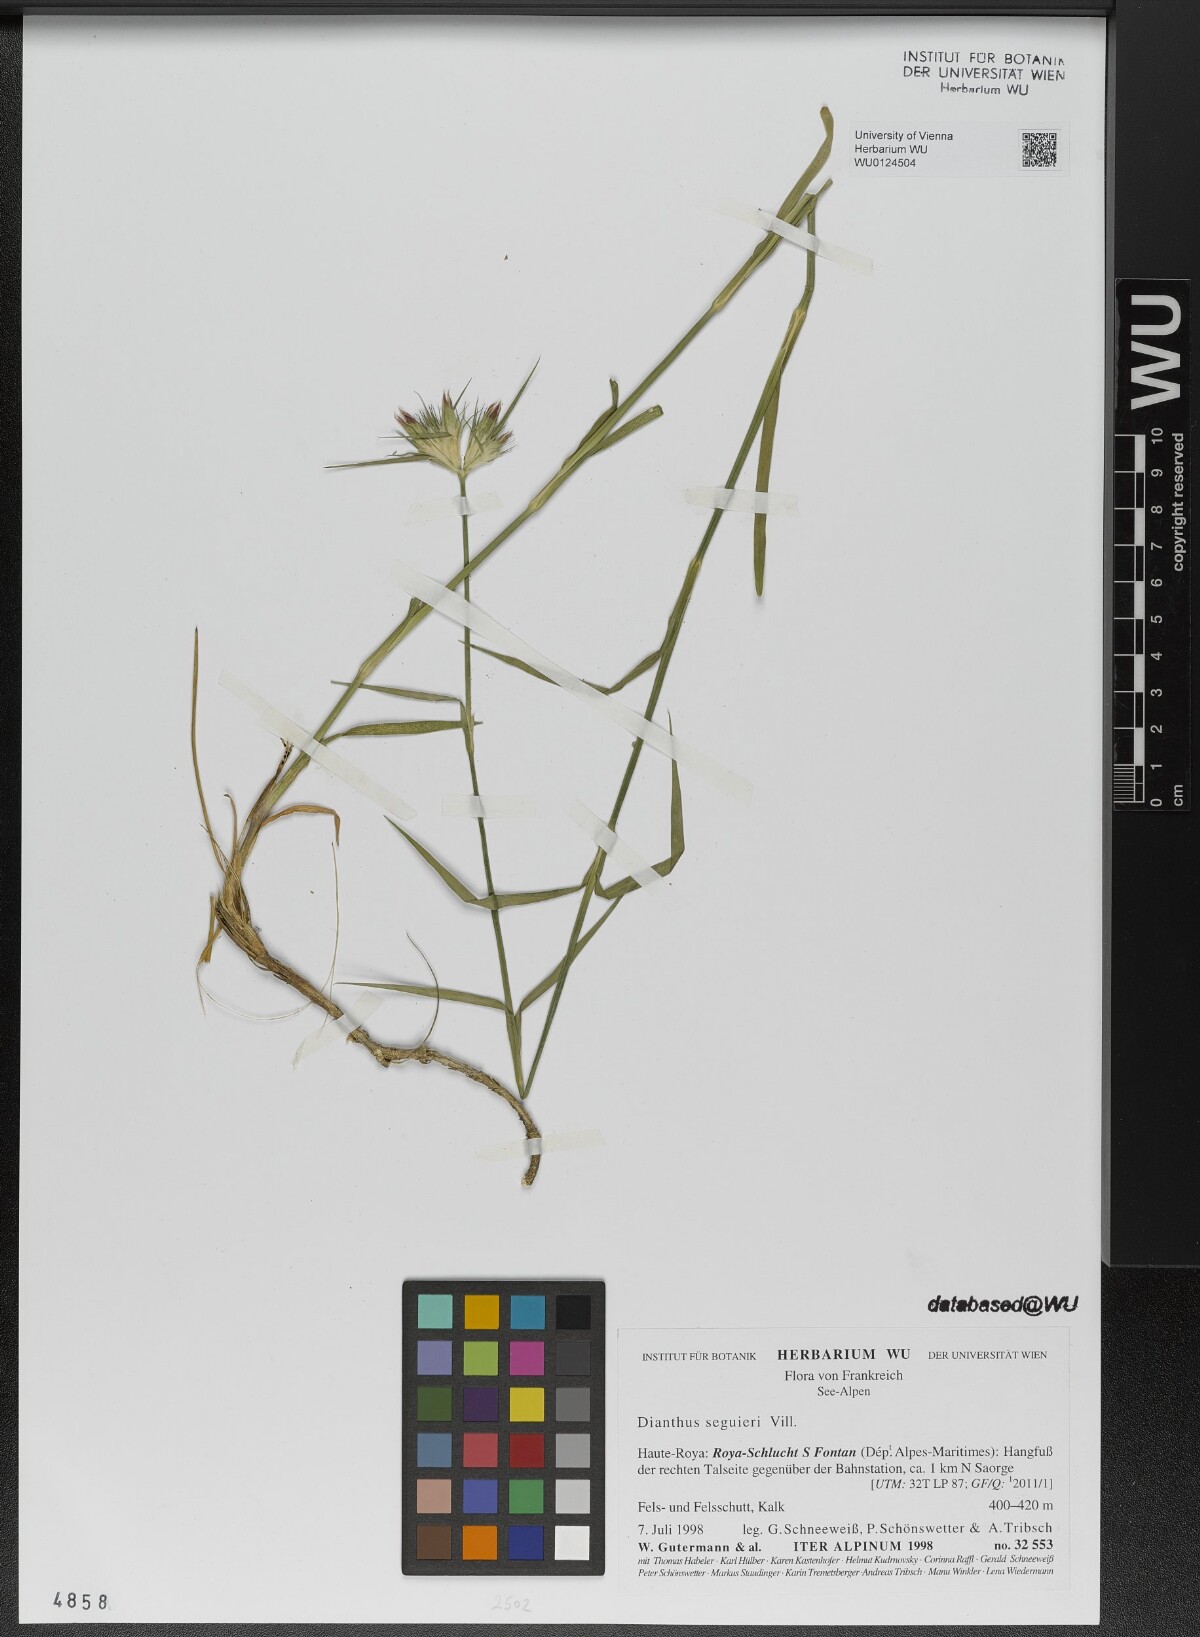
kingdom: Plantae
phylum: Tracheophyta
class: Magnoliopsida
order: Caryophyllales
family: Caryophyllaceae
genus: Dianthus
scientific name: Dianthus seguieri
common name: Ragged pink
